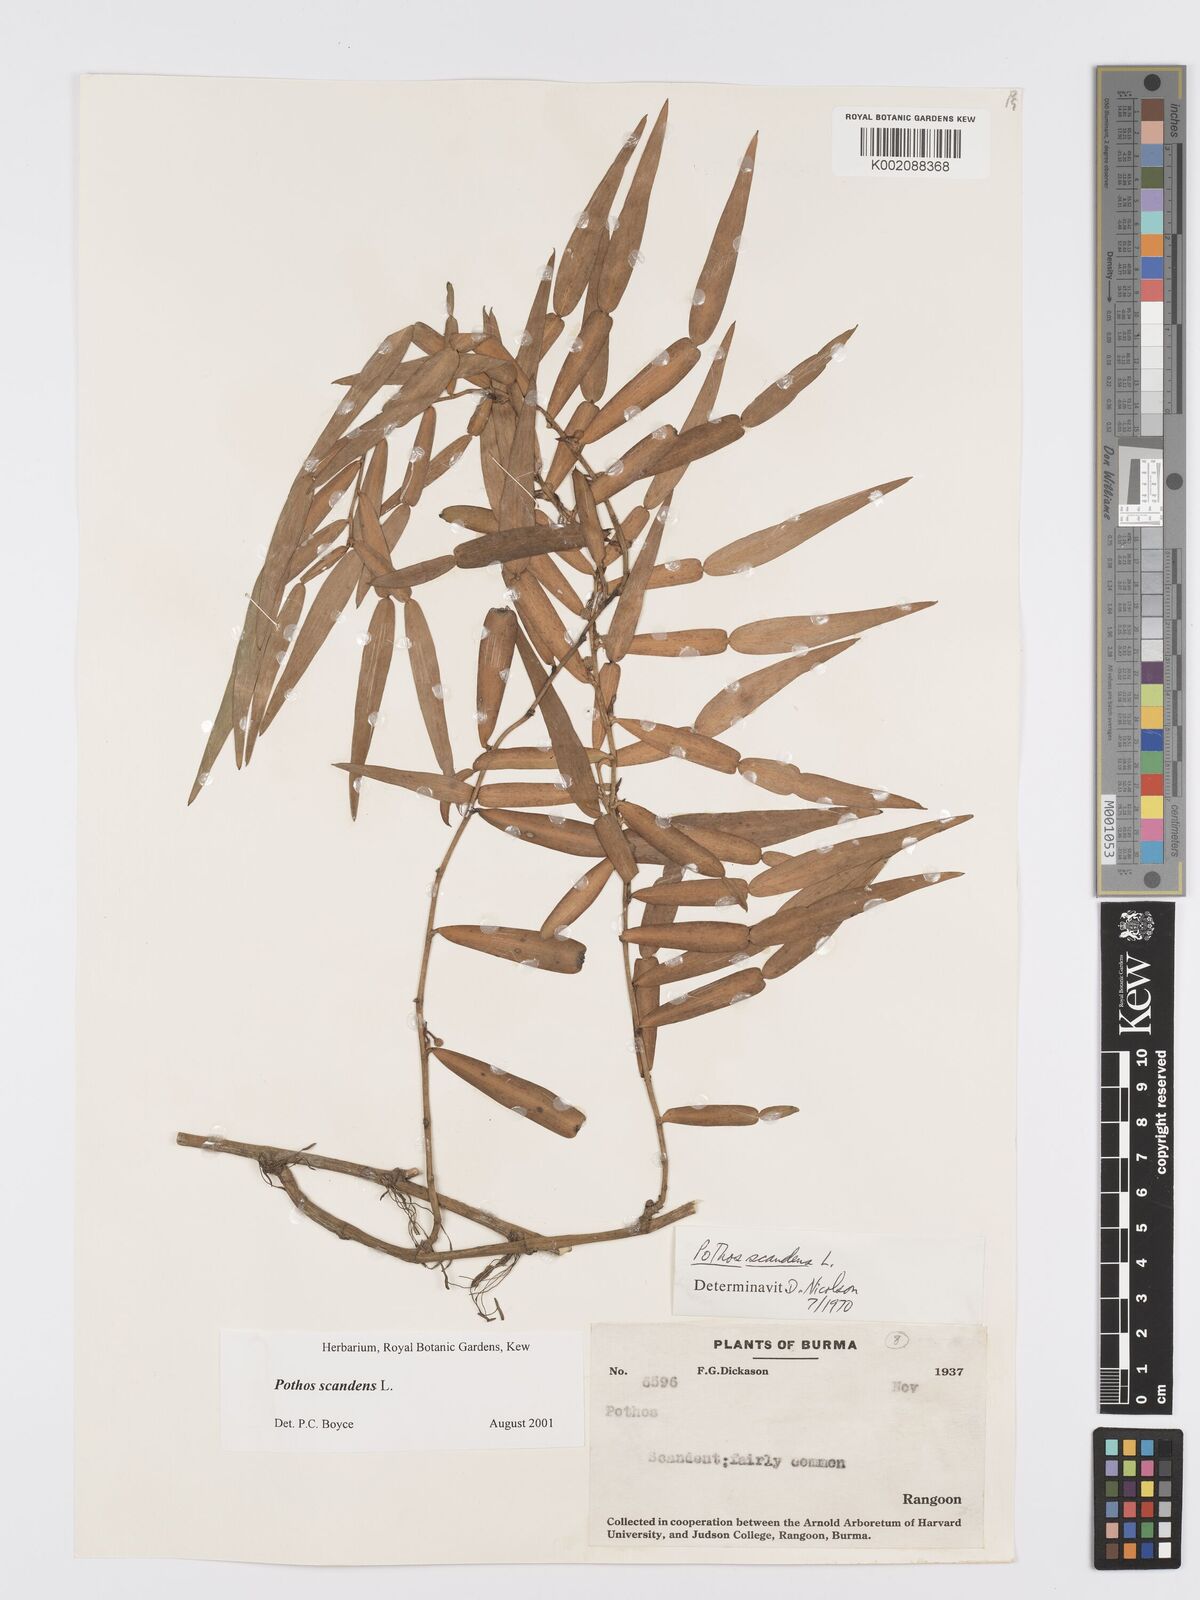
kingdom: Plantae
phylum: Tracheophyta
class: Liliopsida
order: Alismatales
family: Araceae
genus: Pothos
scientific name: Pothos scandens
